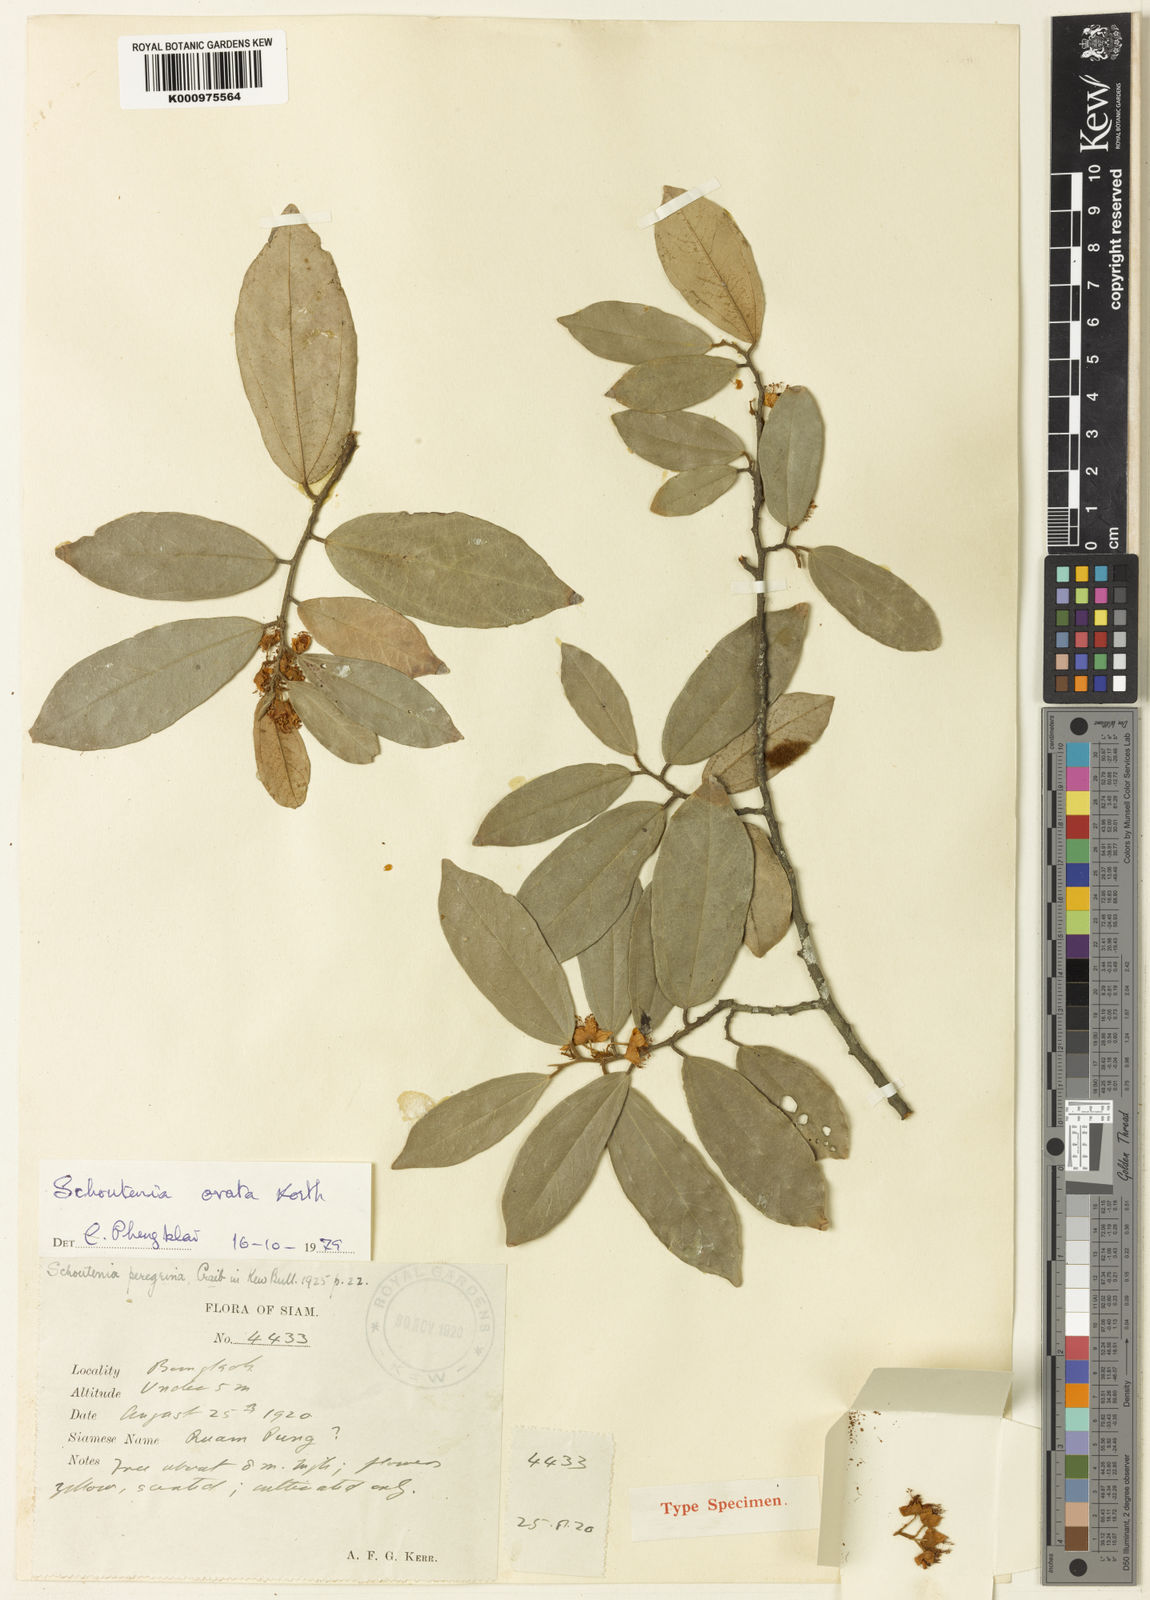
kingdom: Plantae
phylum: Tracheophyta
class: Magnoliopsida
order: Malvales
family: Malvaceae
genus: Schoutenia
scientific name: Schoutenia glomerata
